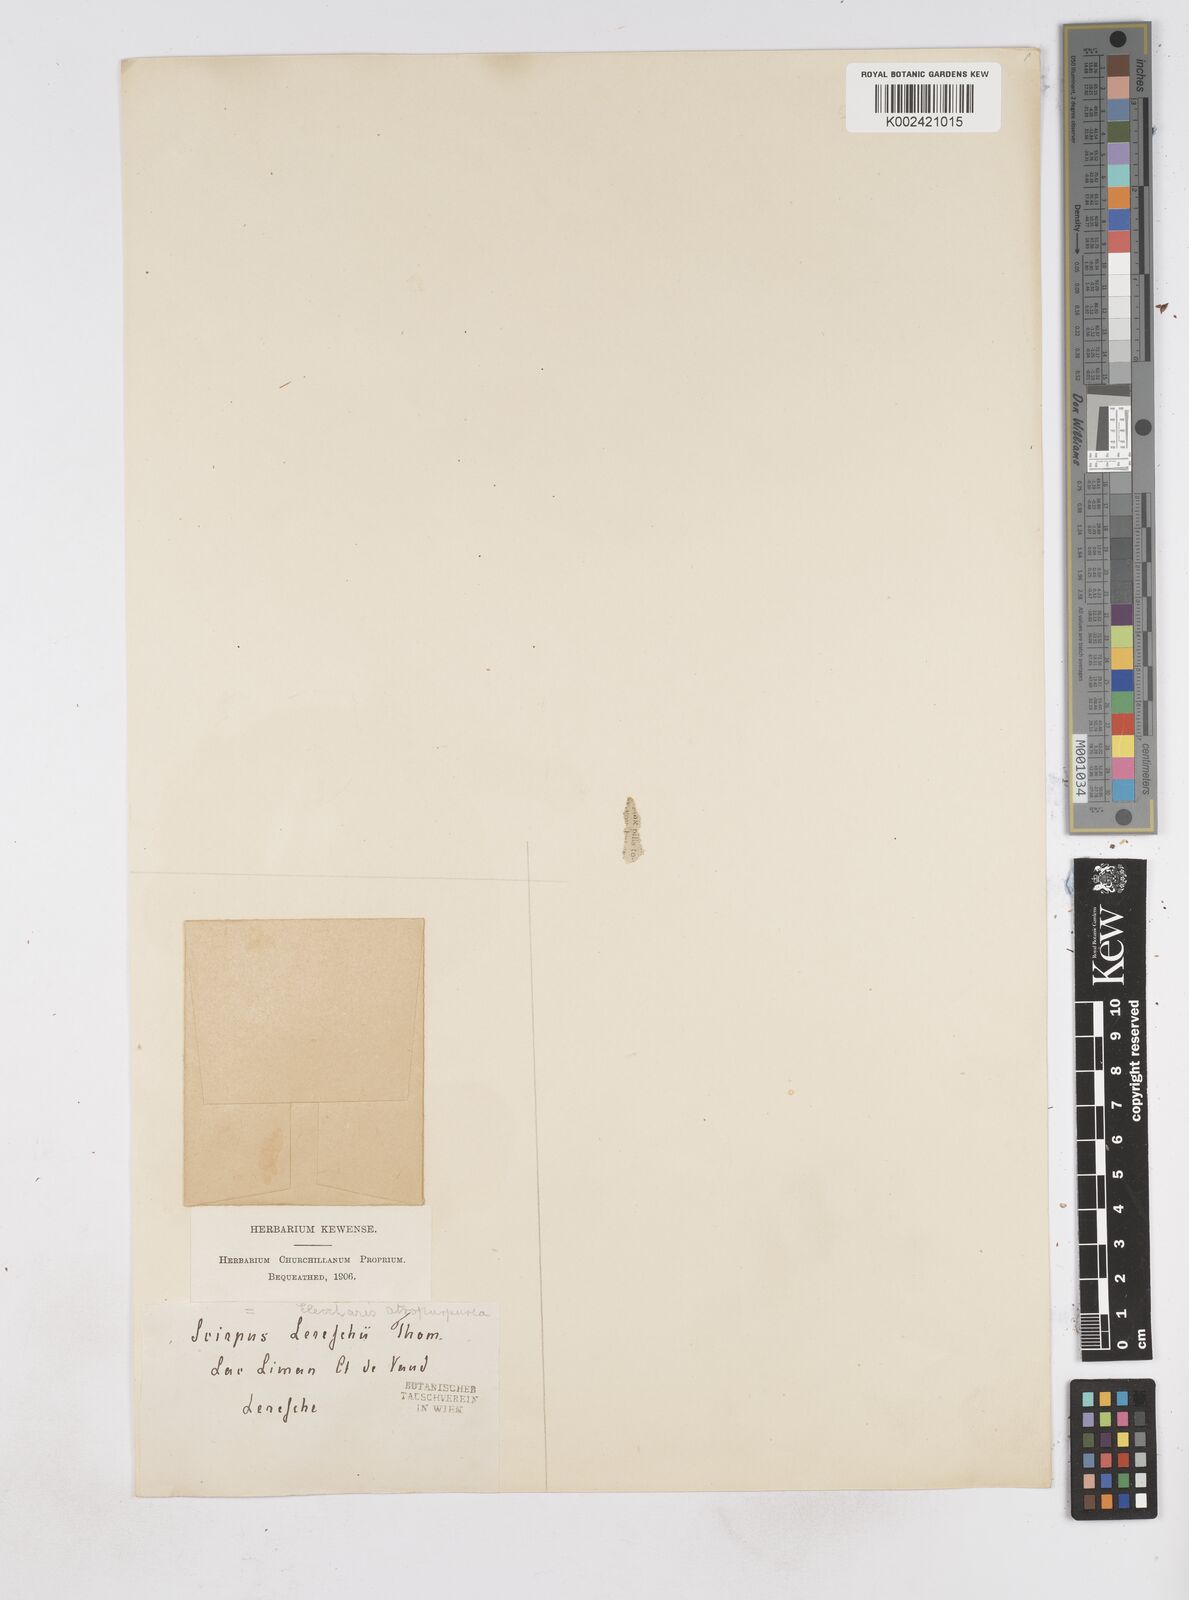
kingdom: Plantae
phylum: Tracheophyta
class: Liliopsida
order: Poales
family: Cyperaceae
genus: Eleocharis
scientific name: Eleocharis atropurpurea
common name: Purple spikerush
